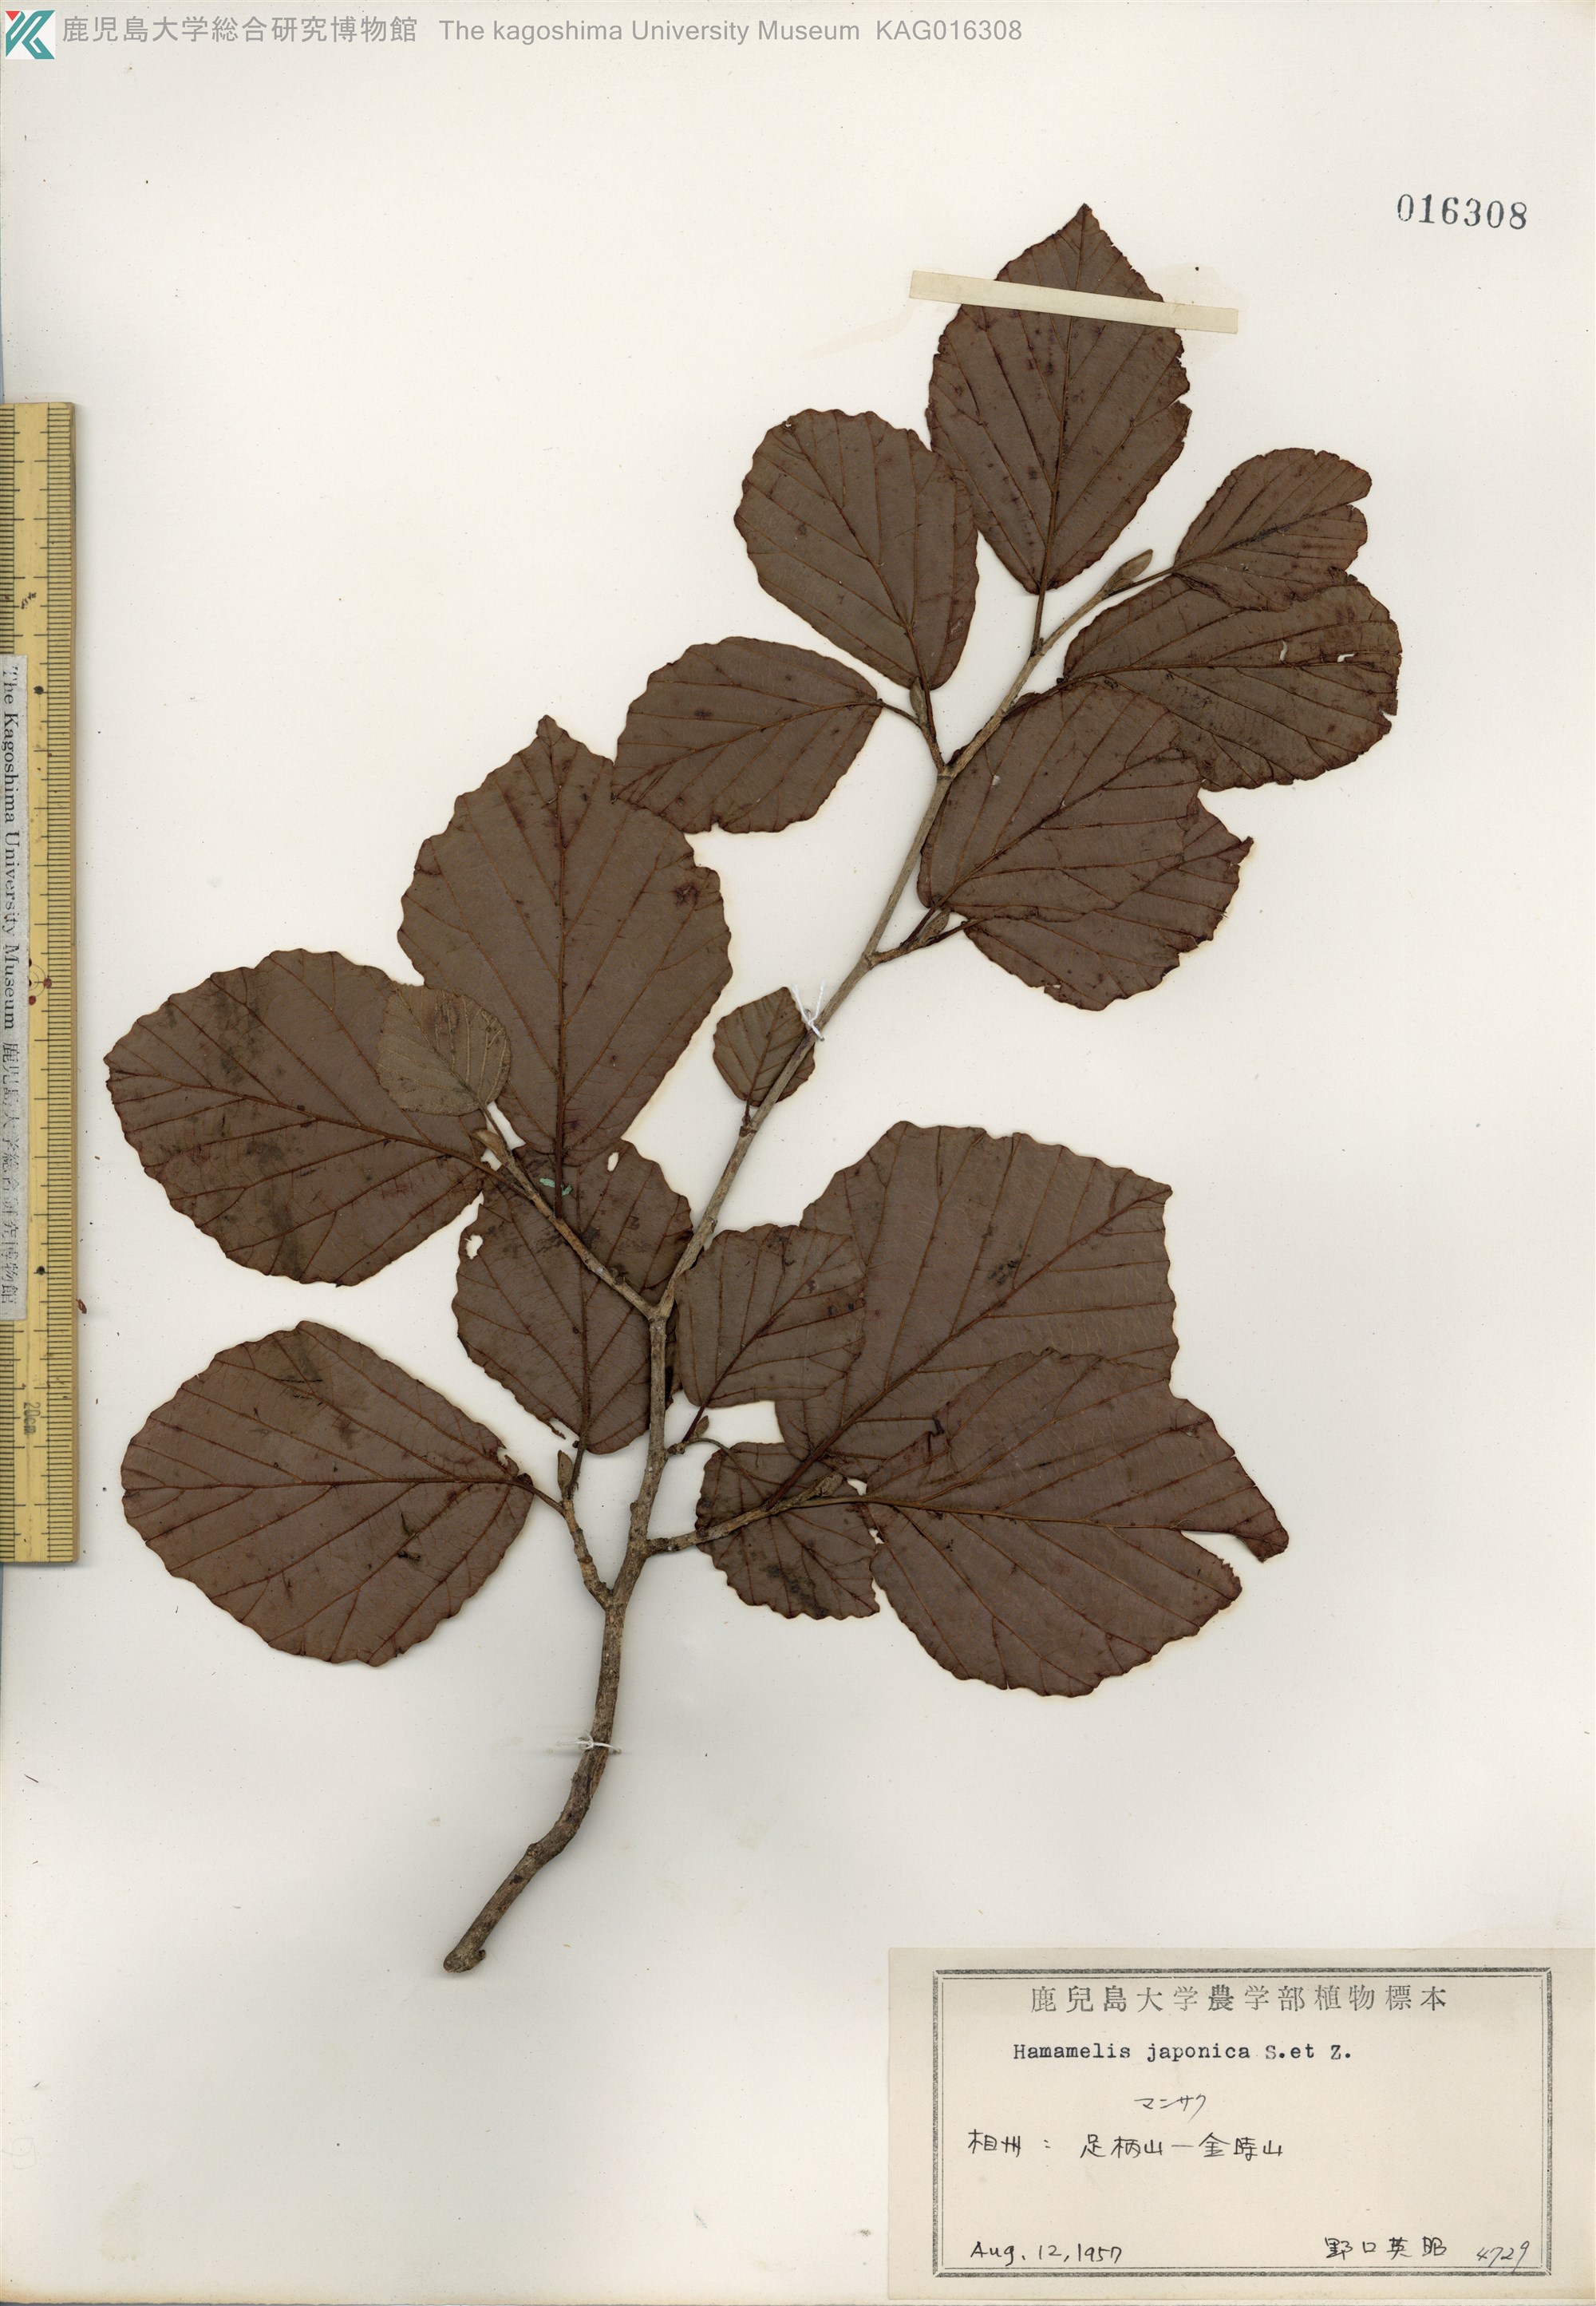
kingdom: Plantae
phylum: Tracheophyta
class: Magnoliopsida
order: Saxifragales
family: Hamamelidaceae
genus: Hamamelis
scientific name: Hamamelis japonica
